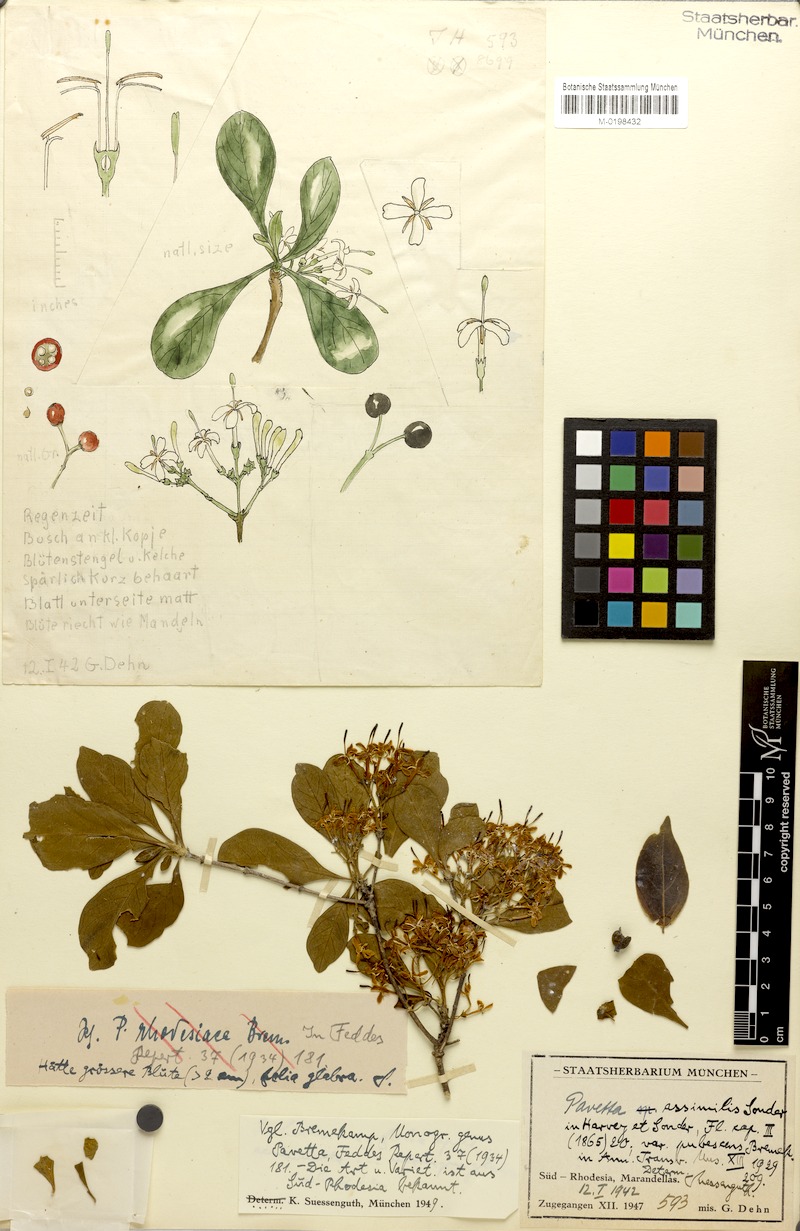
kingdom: Plantae
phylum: Tracheophyta
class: Magnoliopsida
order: Gentianales
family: Rubiaceae
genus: Pavetta
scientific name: Pavetta gardeniifolia
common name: Common brides-bush
